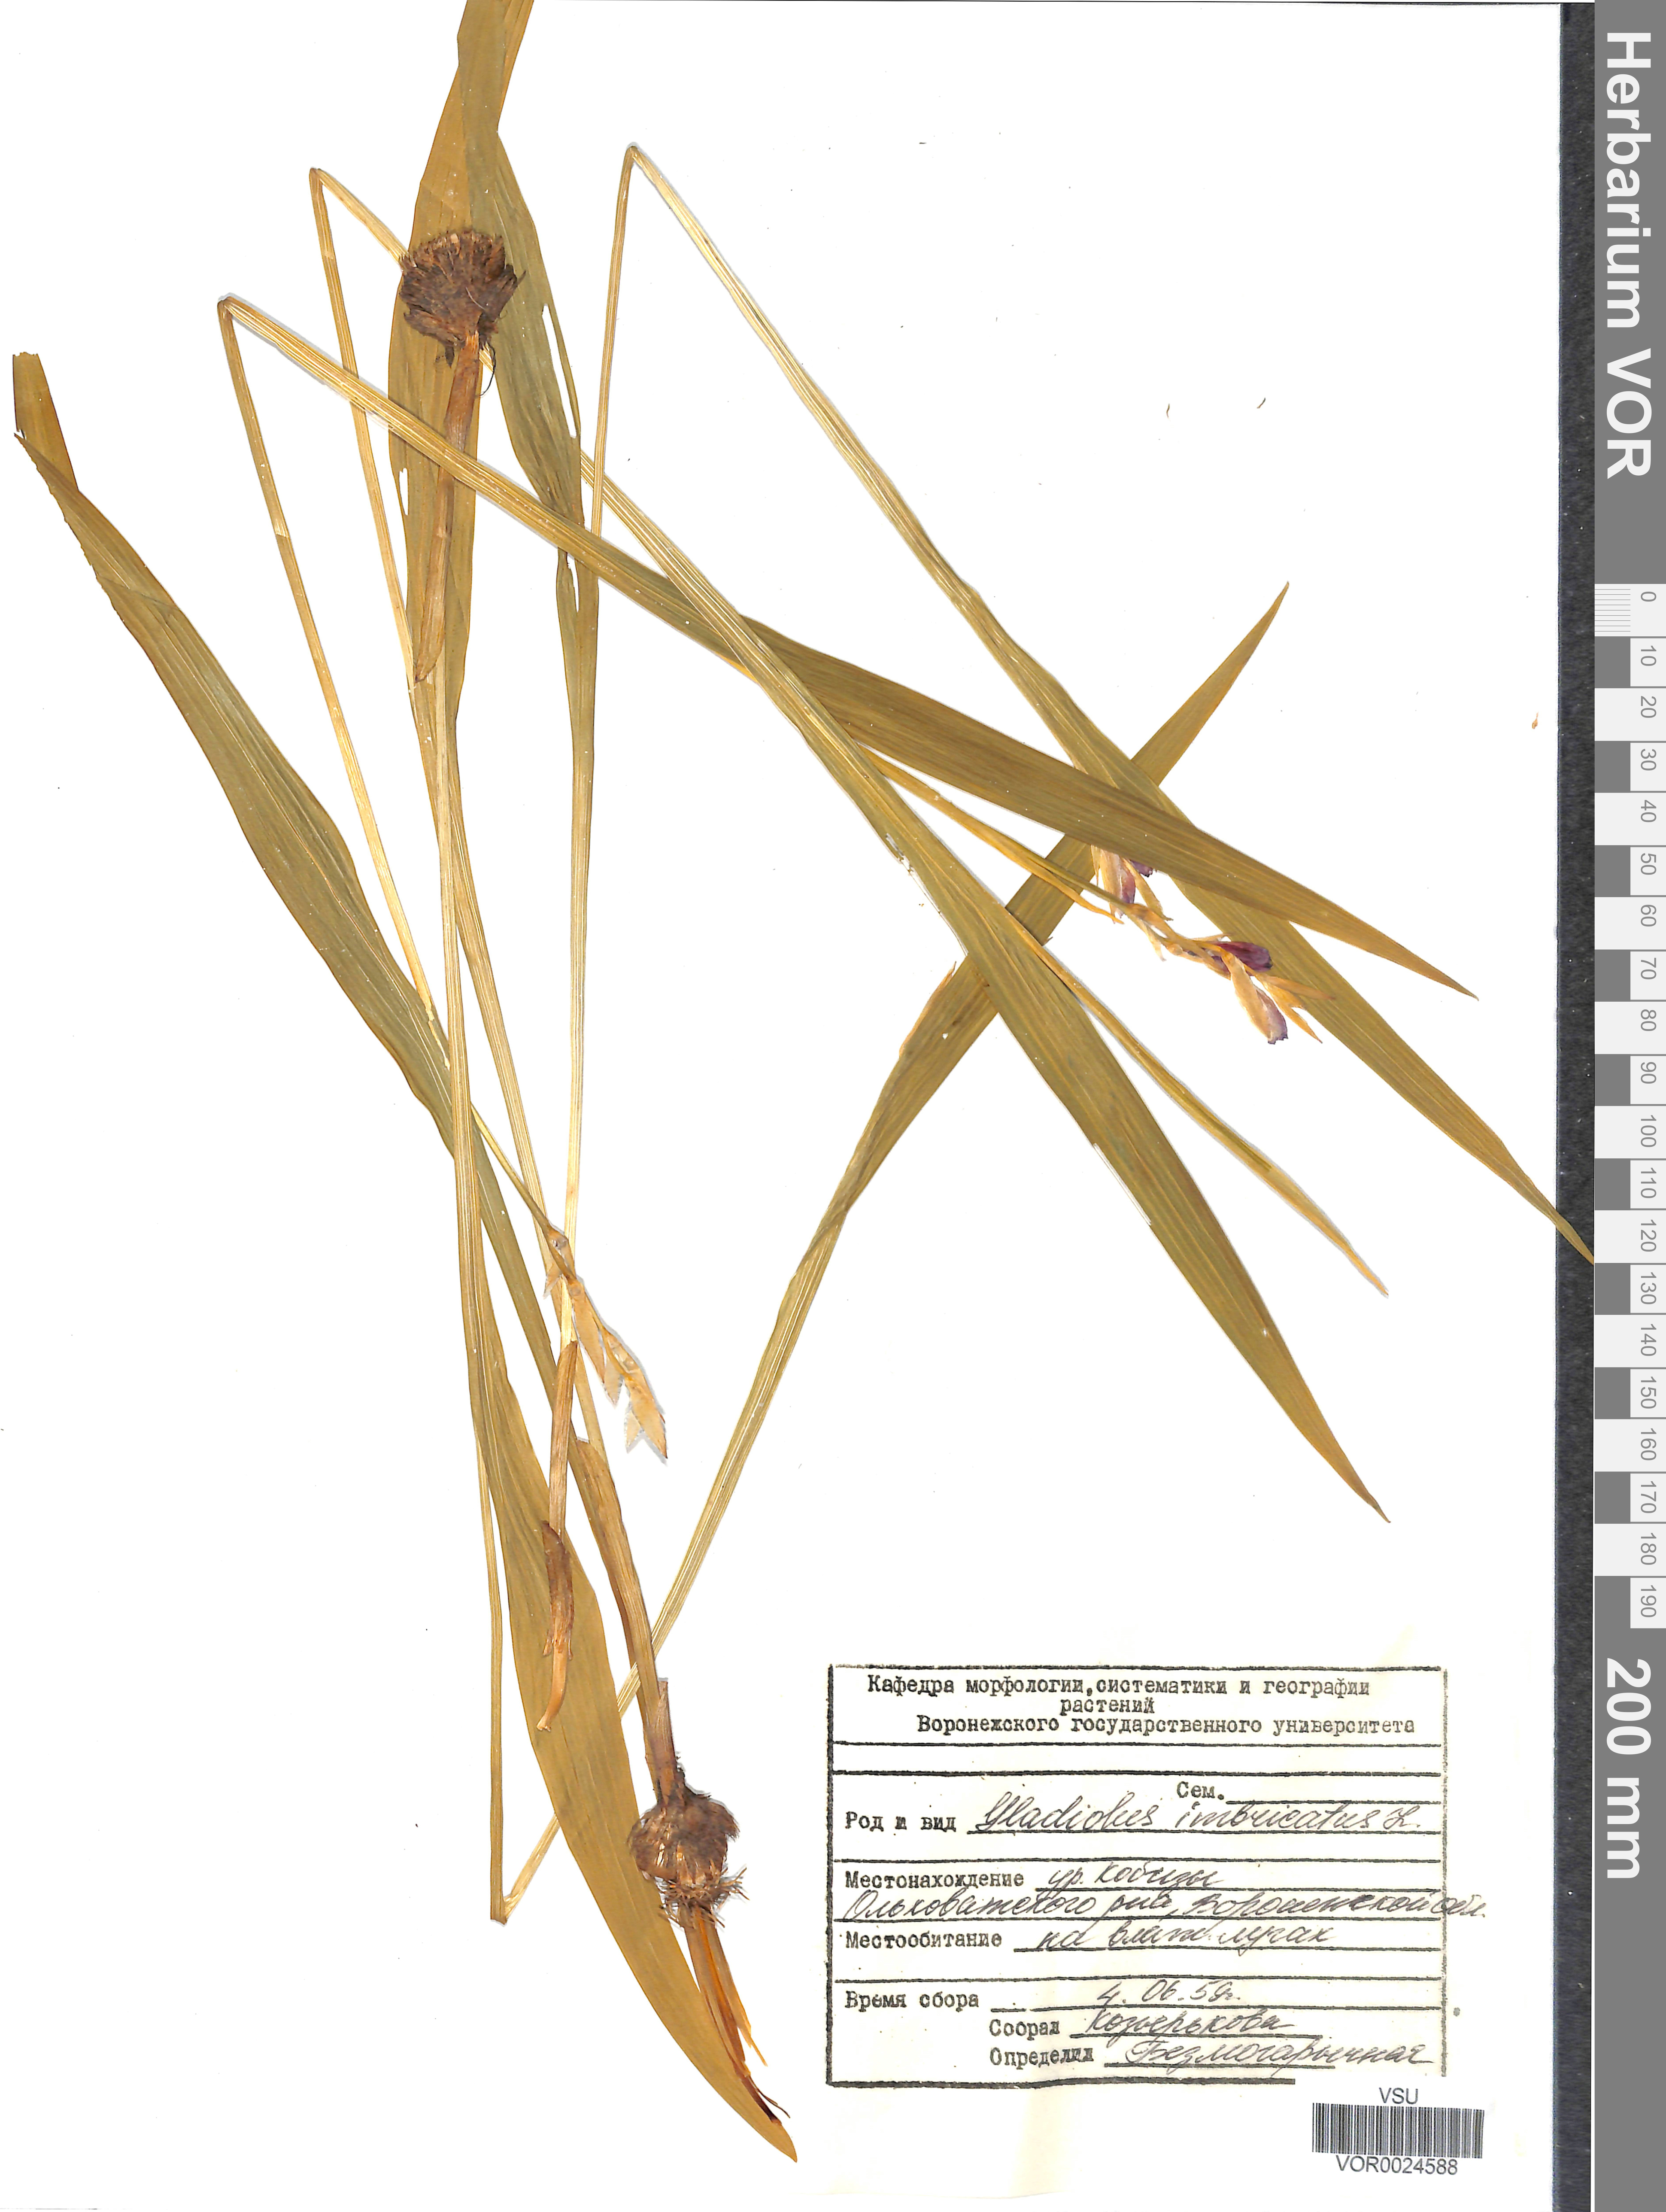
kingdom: Plantae
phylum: Tracheophyta
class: Liliopsida
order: Asparagales
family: Iridaceae
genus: Gladiolus
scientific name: Gladiolus tenuis
